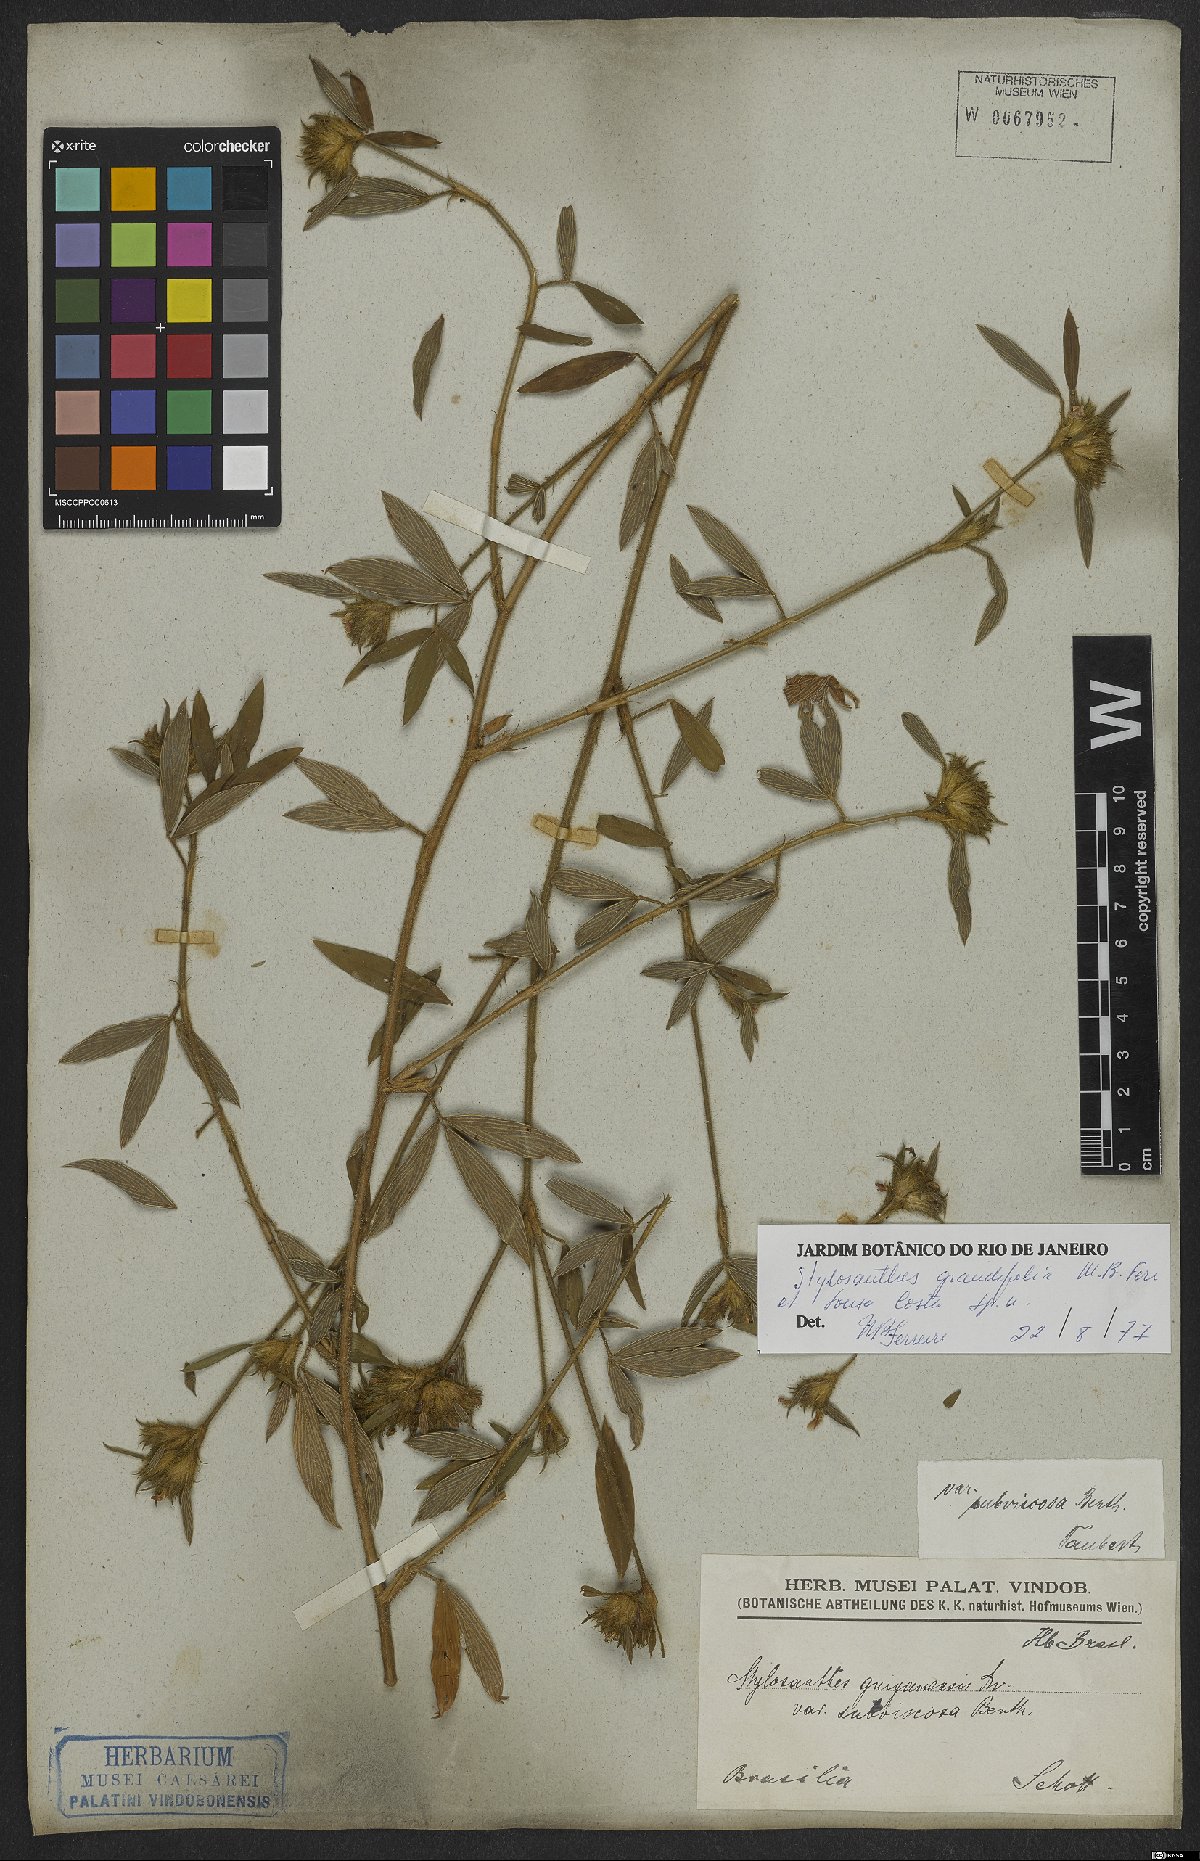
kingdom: Plantae
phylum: Tracheophyta
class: Magnoliopsida
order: Fabales
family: Fabaceae
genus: Stylosanthes
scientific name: Stylosanthes guianensis
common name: Pencil flower
